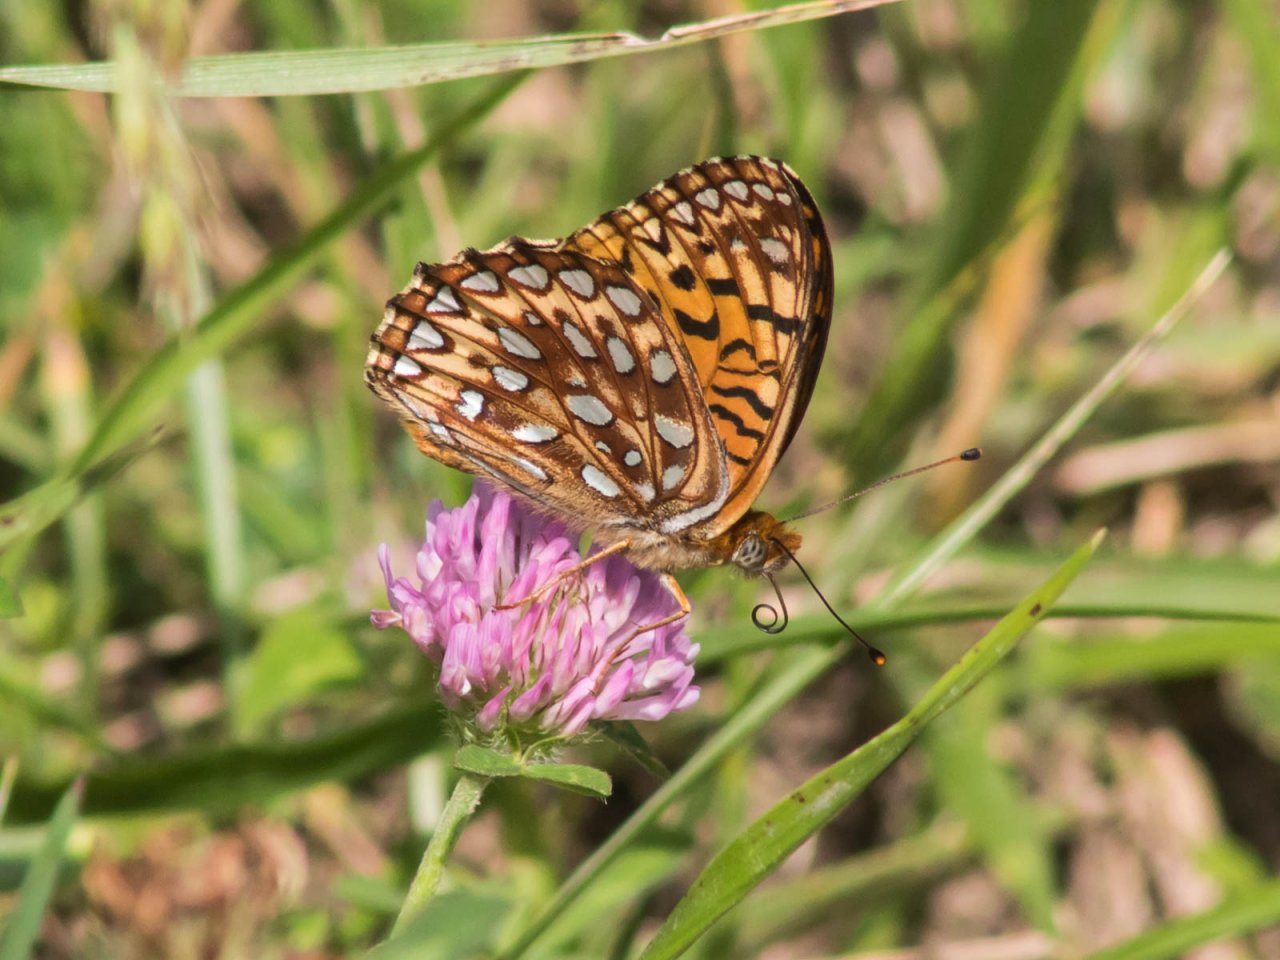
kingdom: Animalia
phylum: Arthropoda
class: Insecta
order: Lepidoptera
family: Nymphalidae
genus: Speyeria
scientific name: Speyeria atlantis
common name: Atlantis Fritillary
